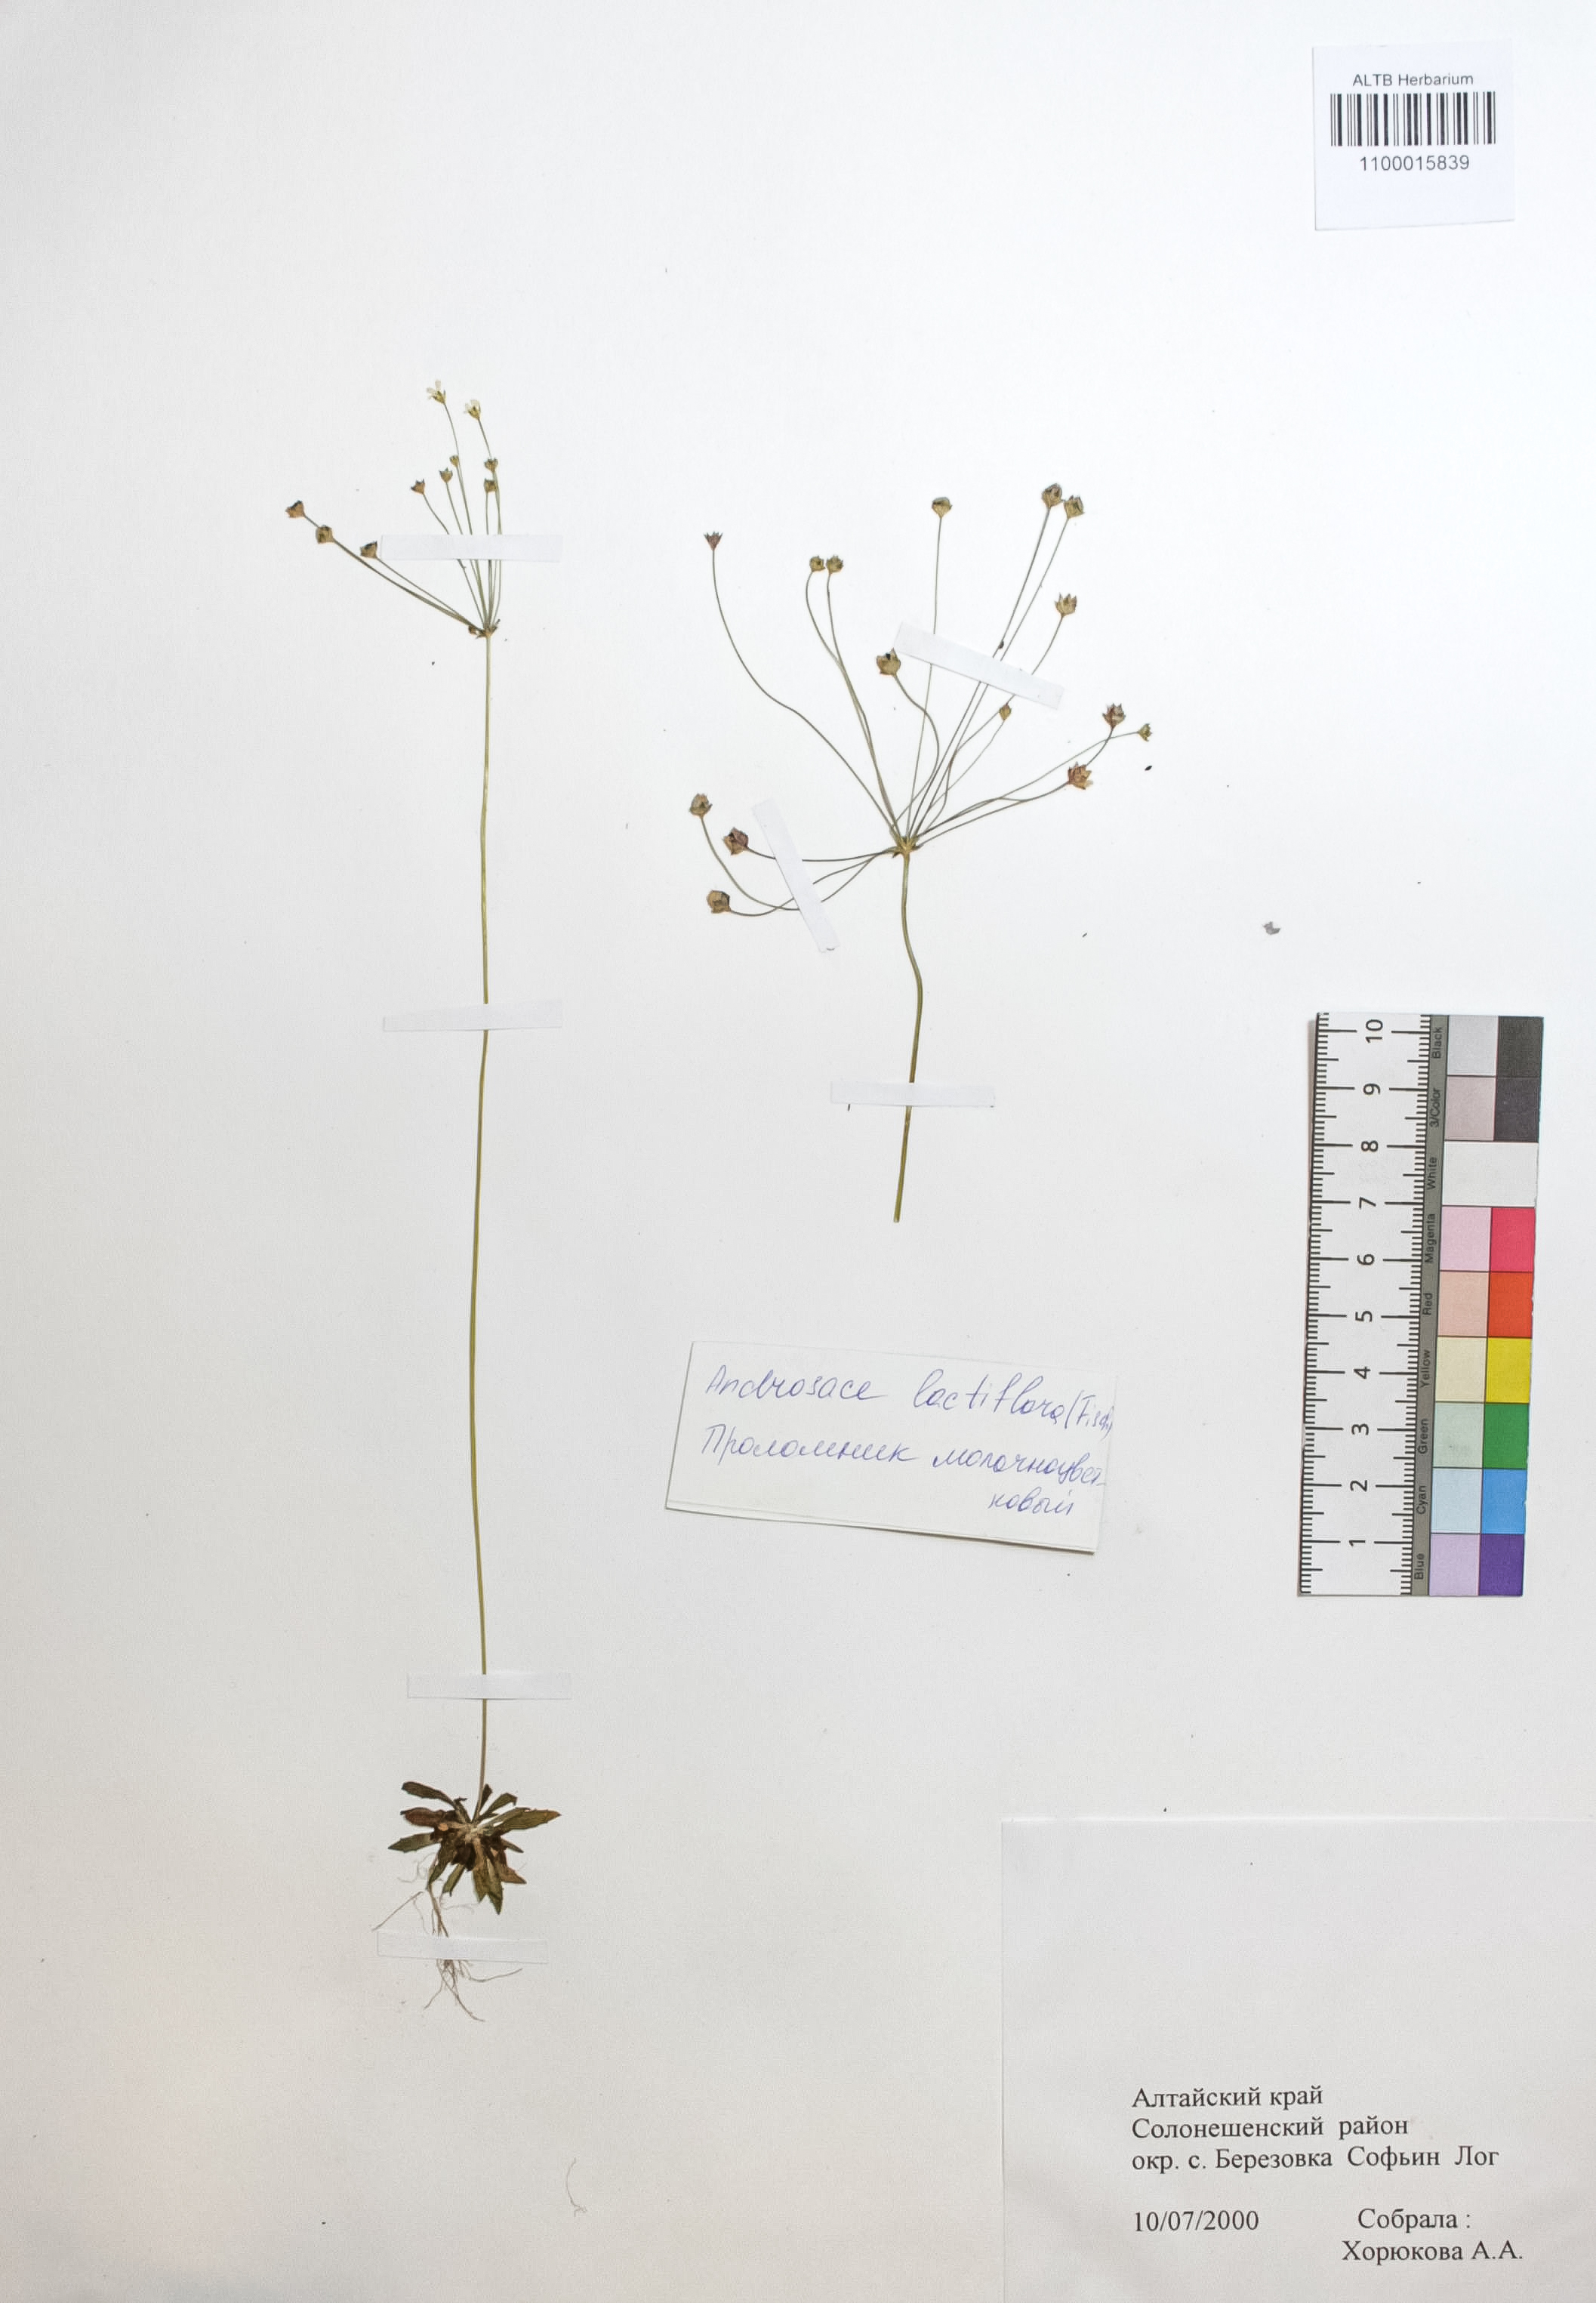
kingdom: Plantae
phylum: Tracheophyta
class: Magnoliopsida
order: Ericales
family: Primulaceae
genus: Androsace
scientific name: Androsace lactiflora
